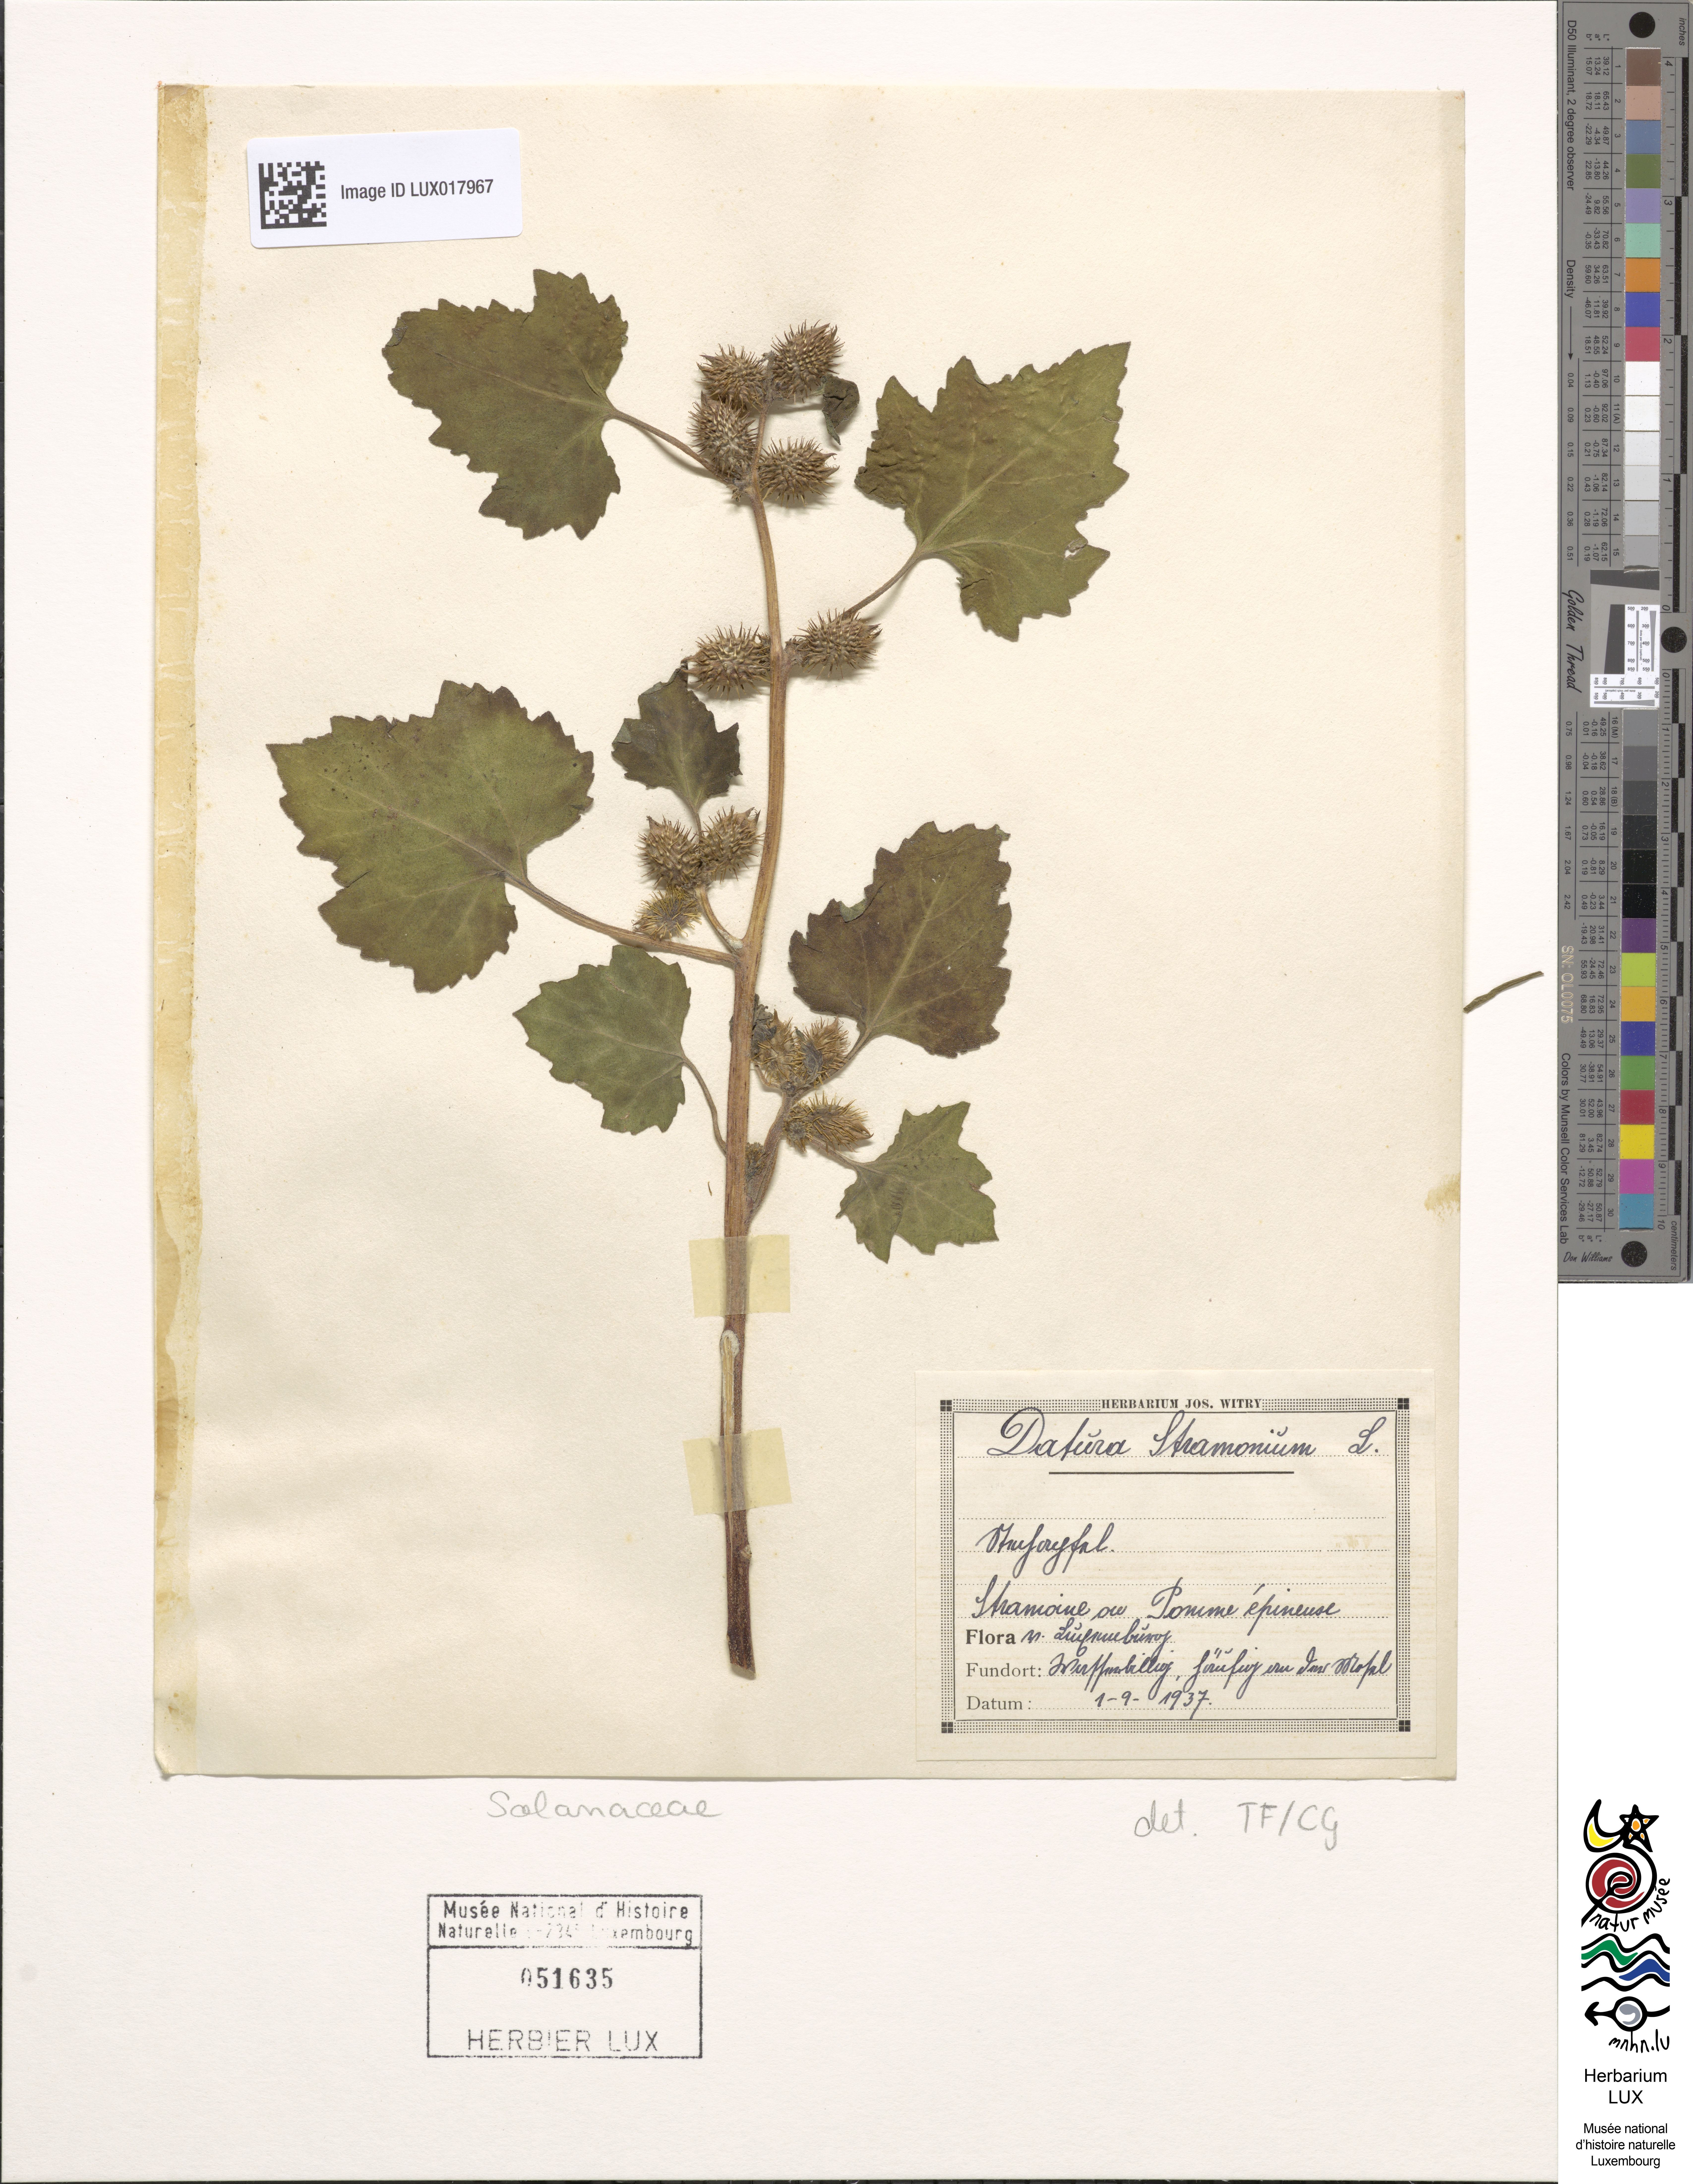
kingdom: Plantae
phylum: Tracheophyta
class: Magnoliopsida
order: Solanales
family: Solanaceae
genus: Datura
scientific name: Datura stramonium
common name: Thorn-apple
